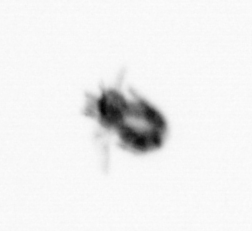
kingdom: Animalia
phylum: Arthropoda
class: Copepoda
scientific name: Copepoda
